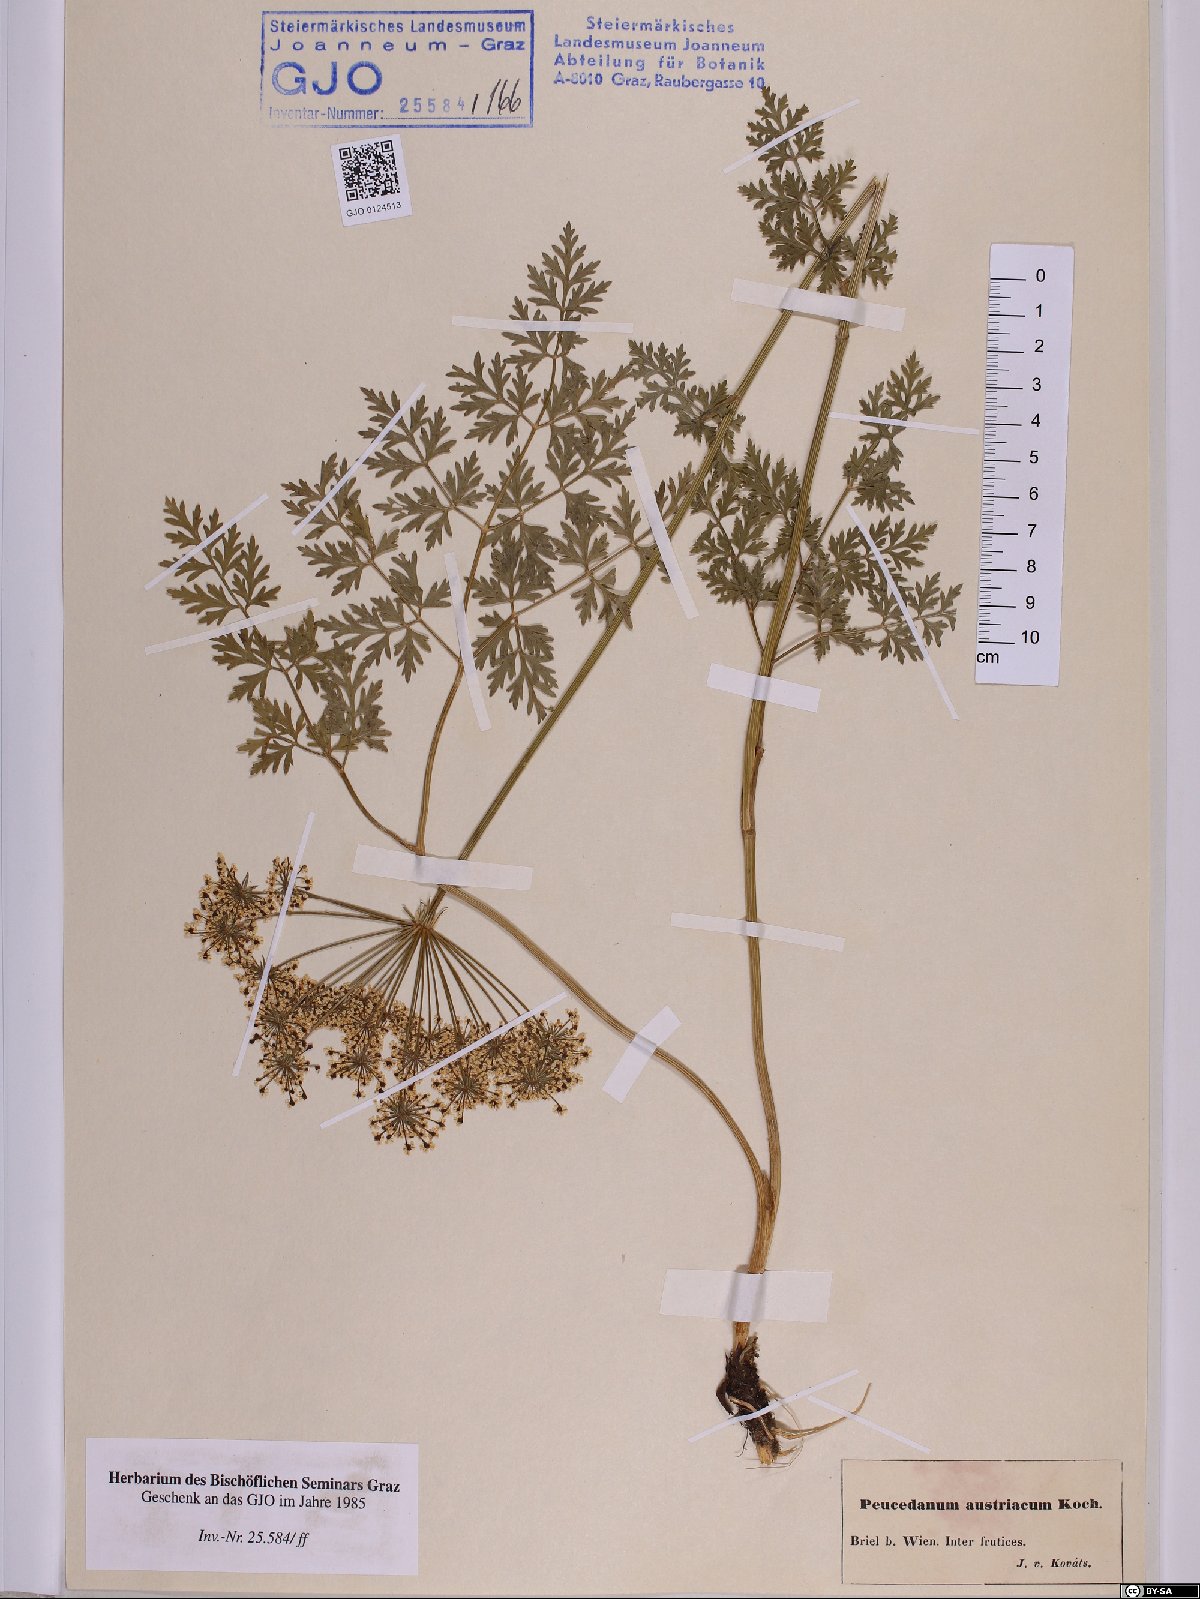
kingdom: Plantae
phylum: Tracheophyta
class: Magnoliopsida
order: Apiales
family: Apiaceae
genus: Peucedanum
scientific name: Peucedanum austriacum
